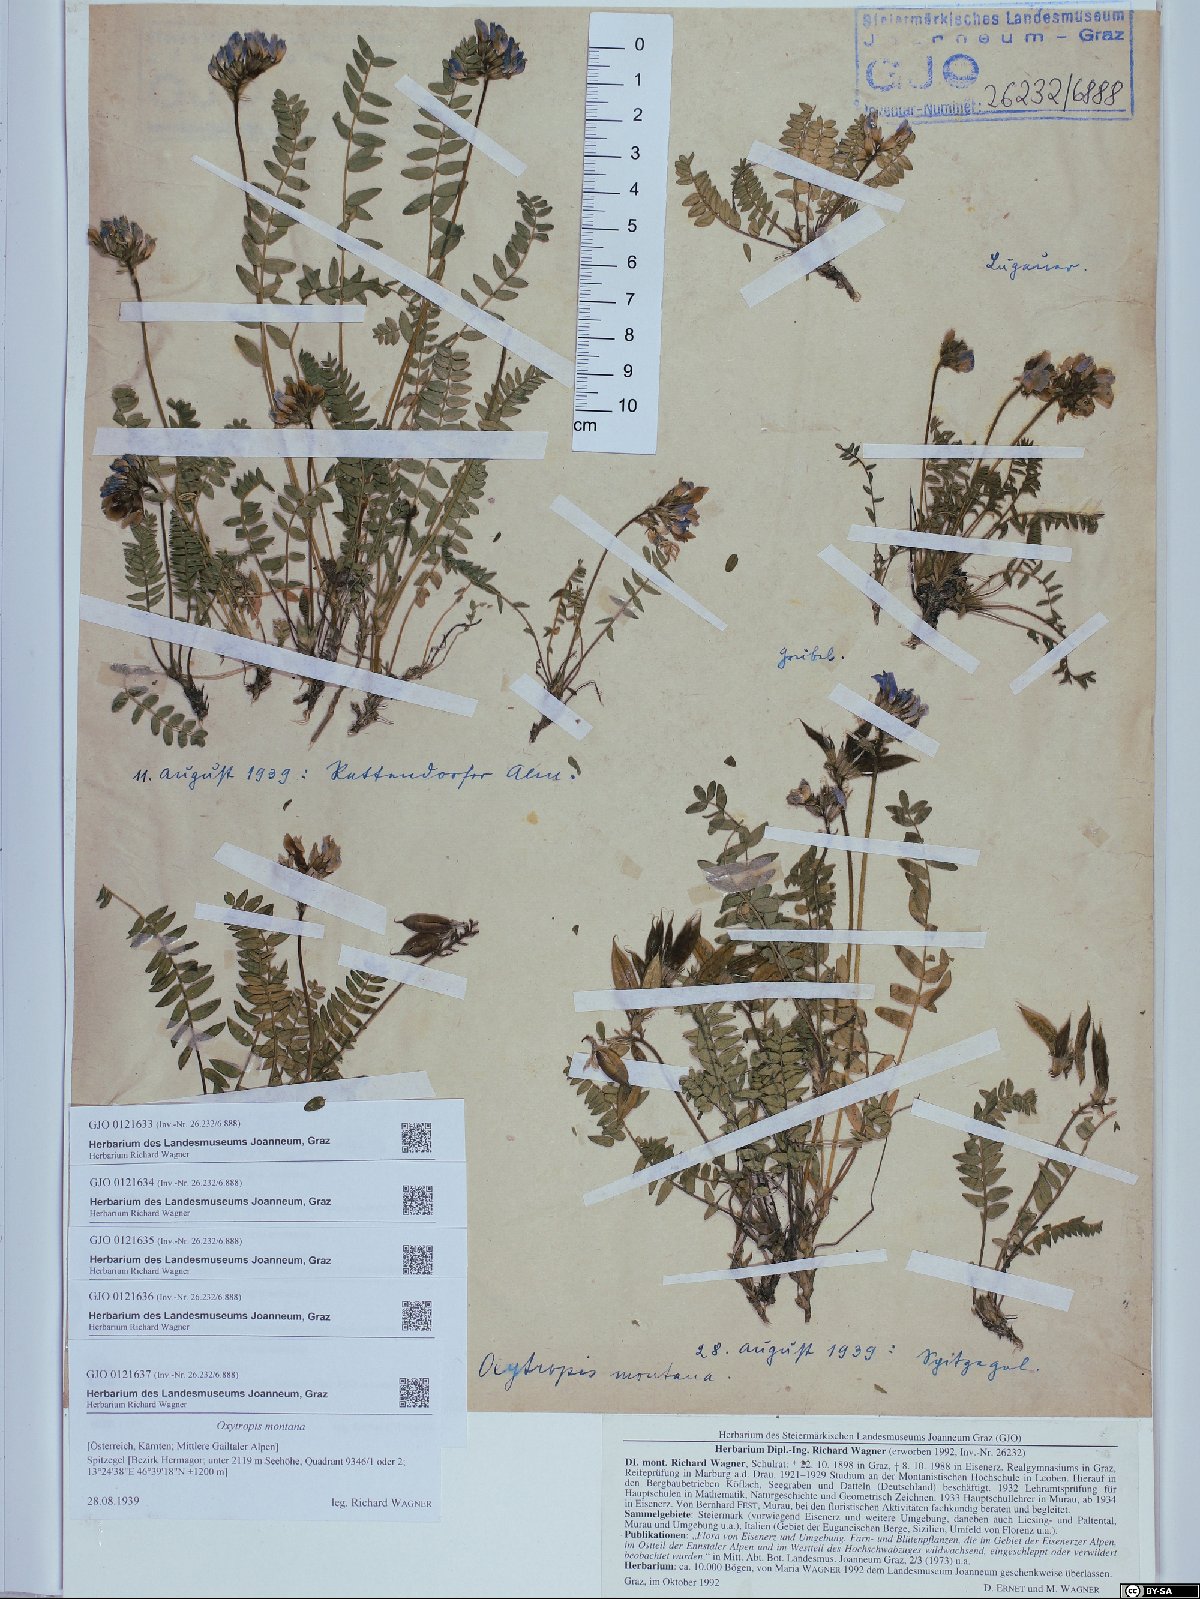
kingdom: Plantae
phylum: Tracheophyta
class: Magnoliopsida
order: Fabales
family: Fabaceae
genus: Oxytropis
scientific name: Oxytropis montana
